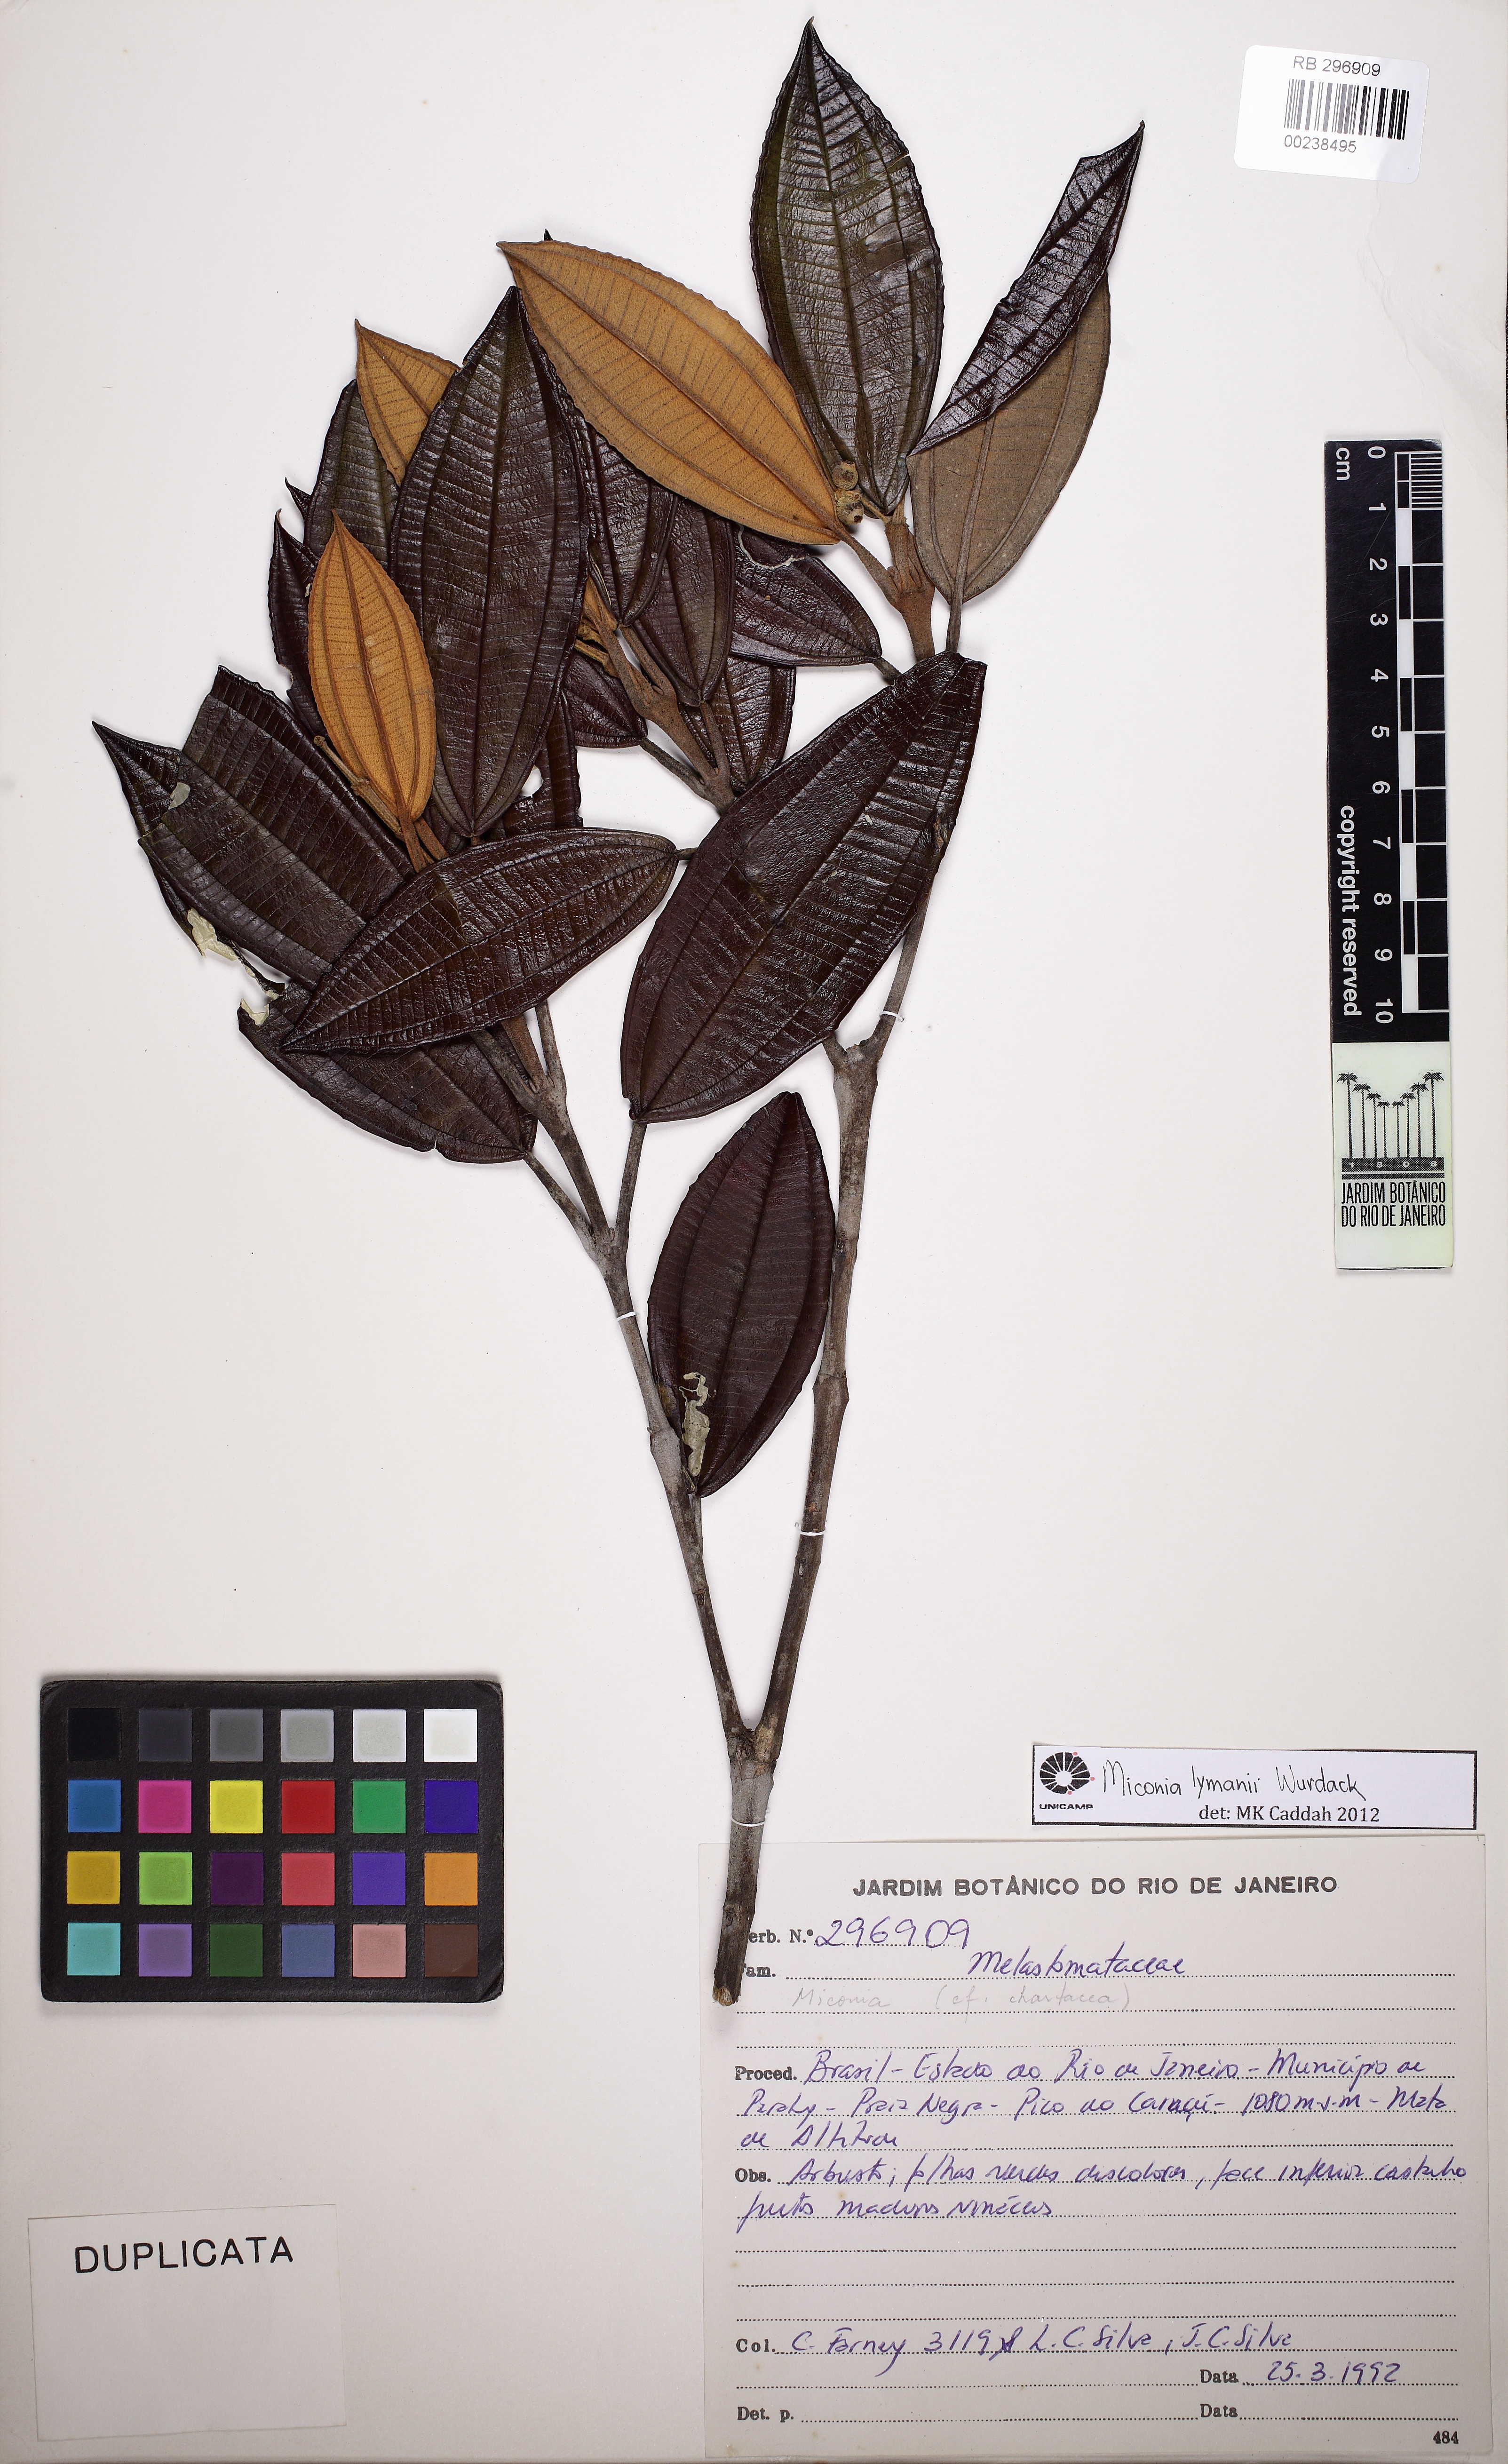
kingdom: Plantae
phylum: Tracheophyta
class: Magnoliopsida
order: Myrtales
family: Melastomataceae
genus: Miconia
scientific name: Miconia lymanii
